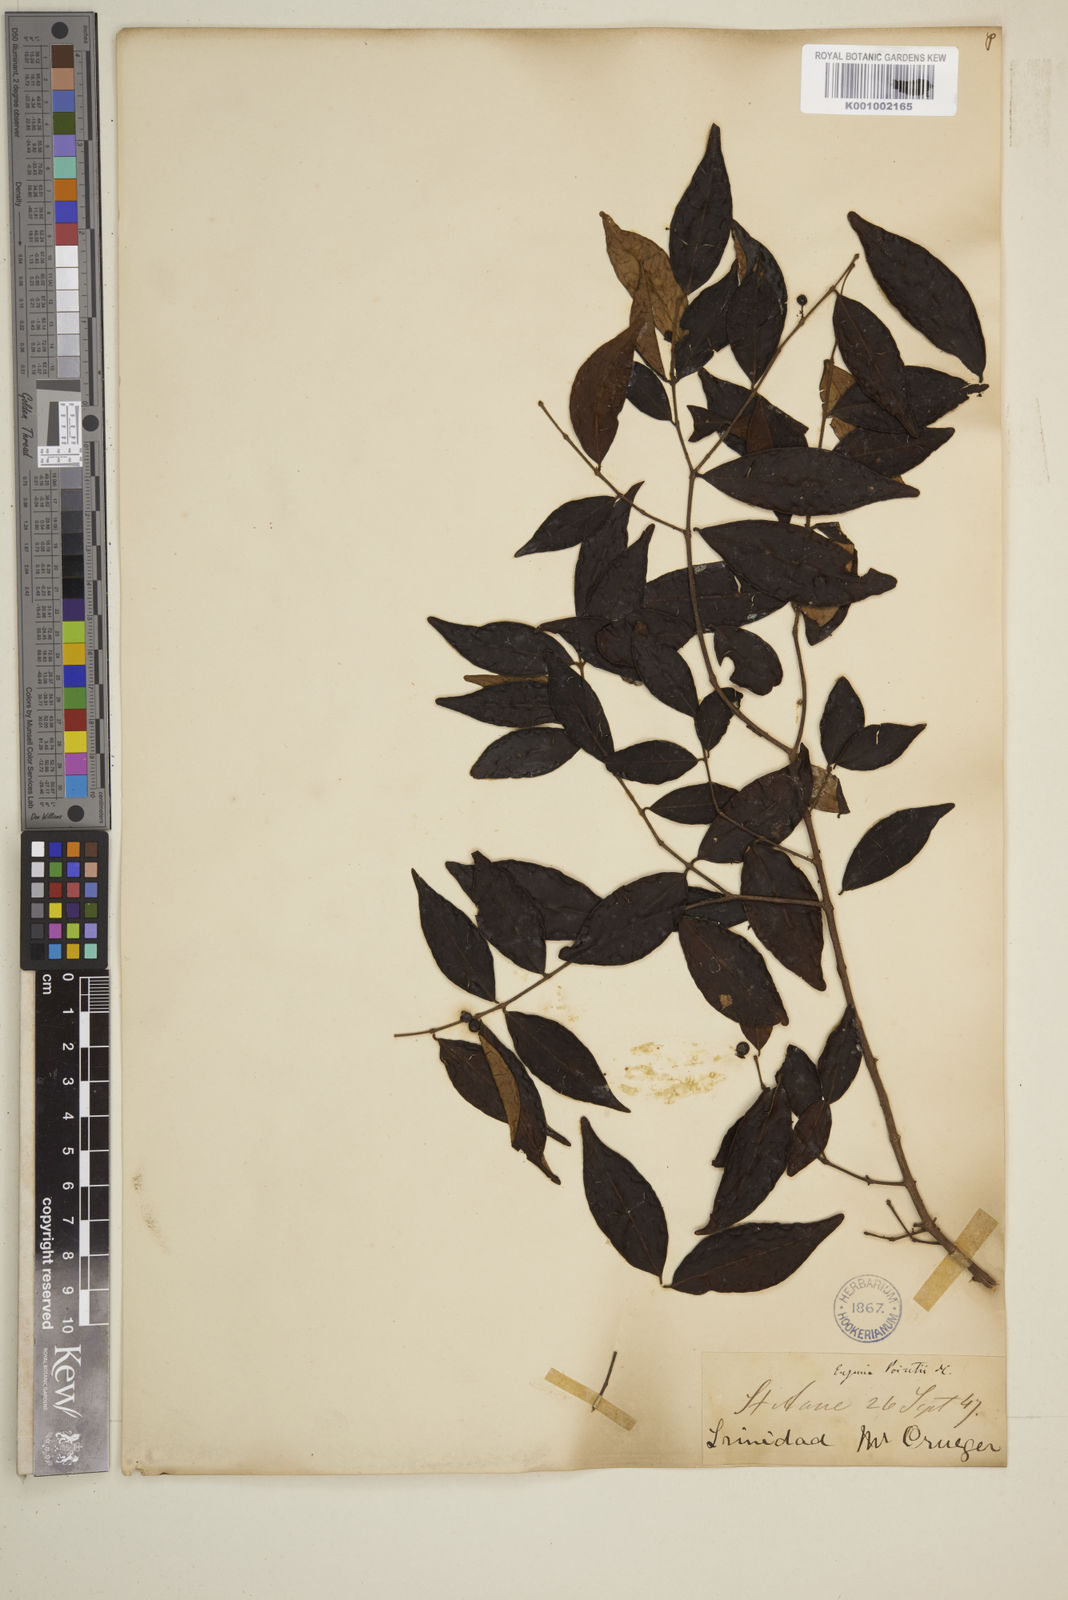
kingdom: Plantae
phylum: Tracheophyta
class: Magnoliopsida
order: Myrtales
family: Myrtaceae
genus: Eugenia
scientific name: Eugenia monticola
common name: Birds berry
